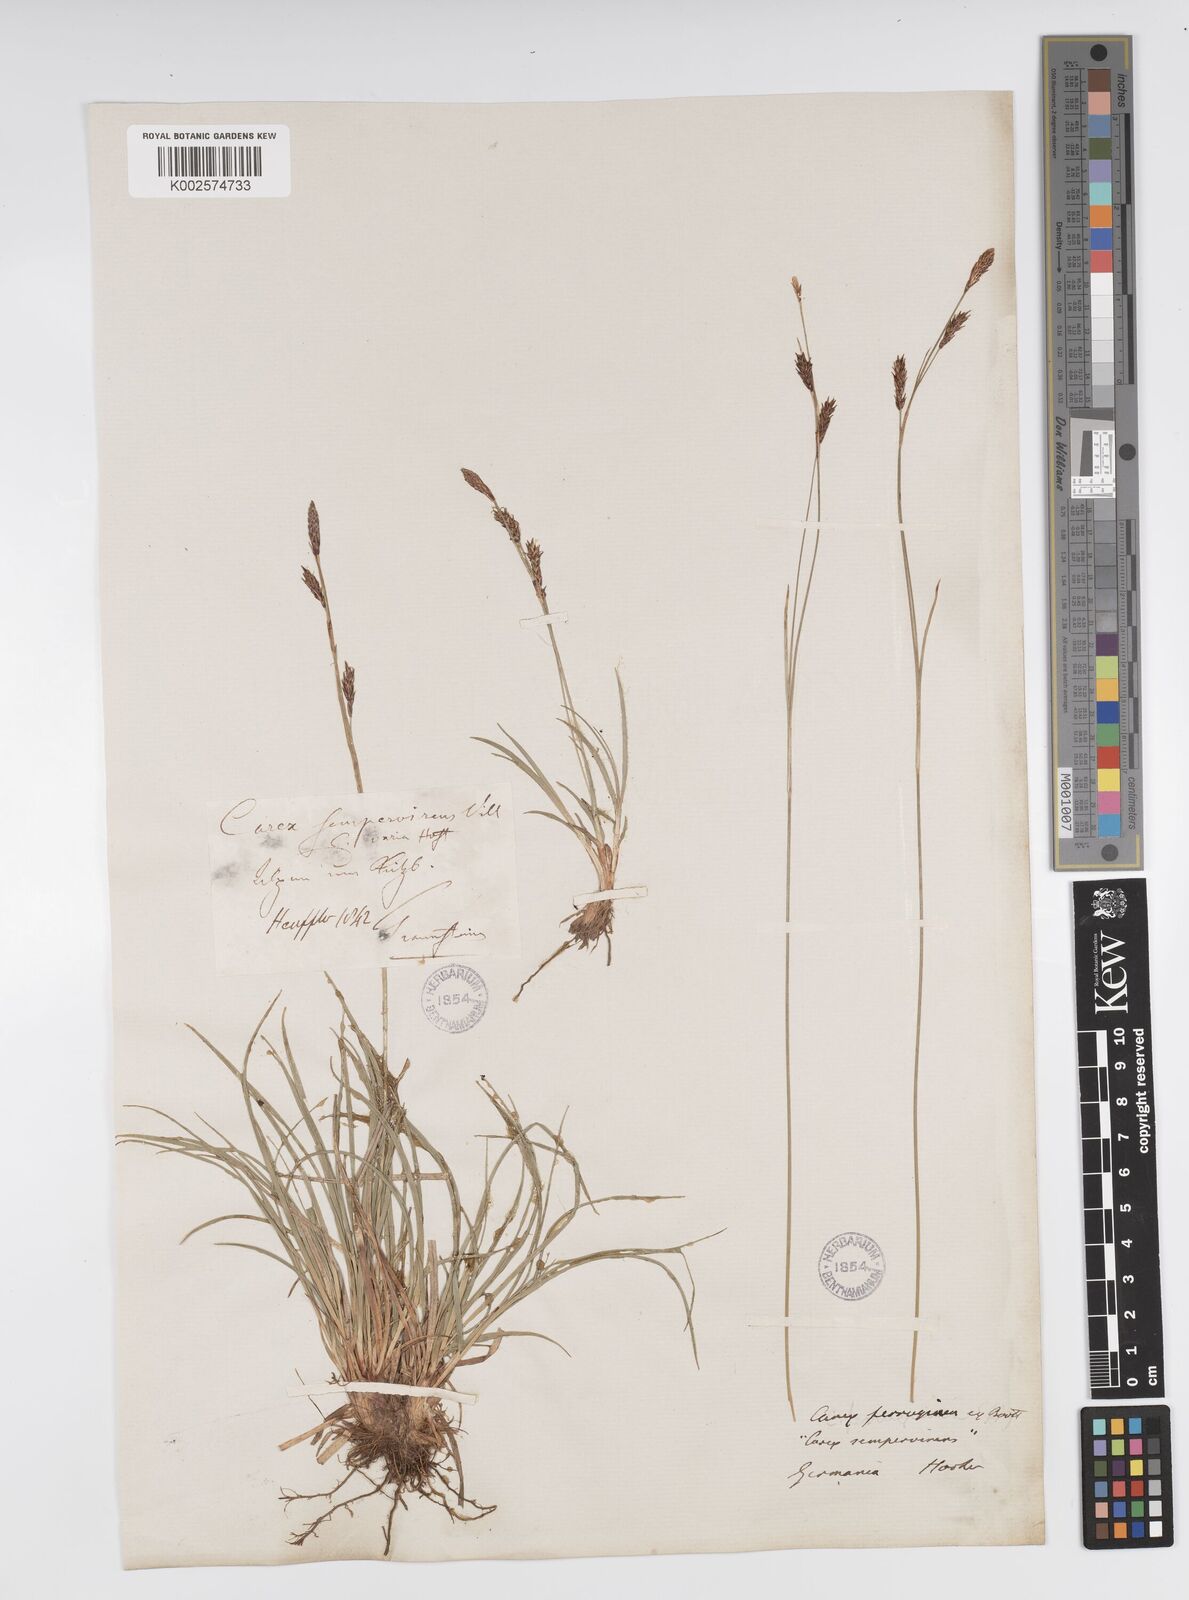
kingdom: Plantae
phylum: Tracheophyta
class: Liliopsida
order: Poales
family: Cyperaceae
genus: Carex
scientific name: Carex ferruginea
